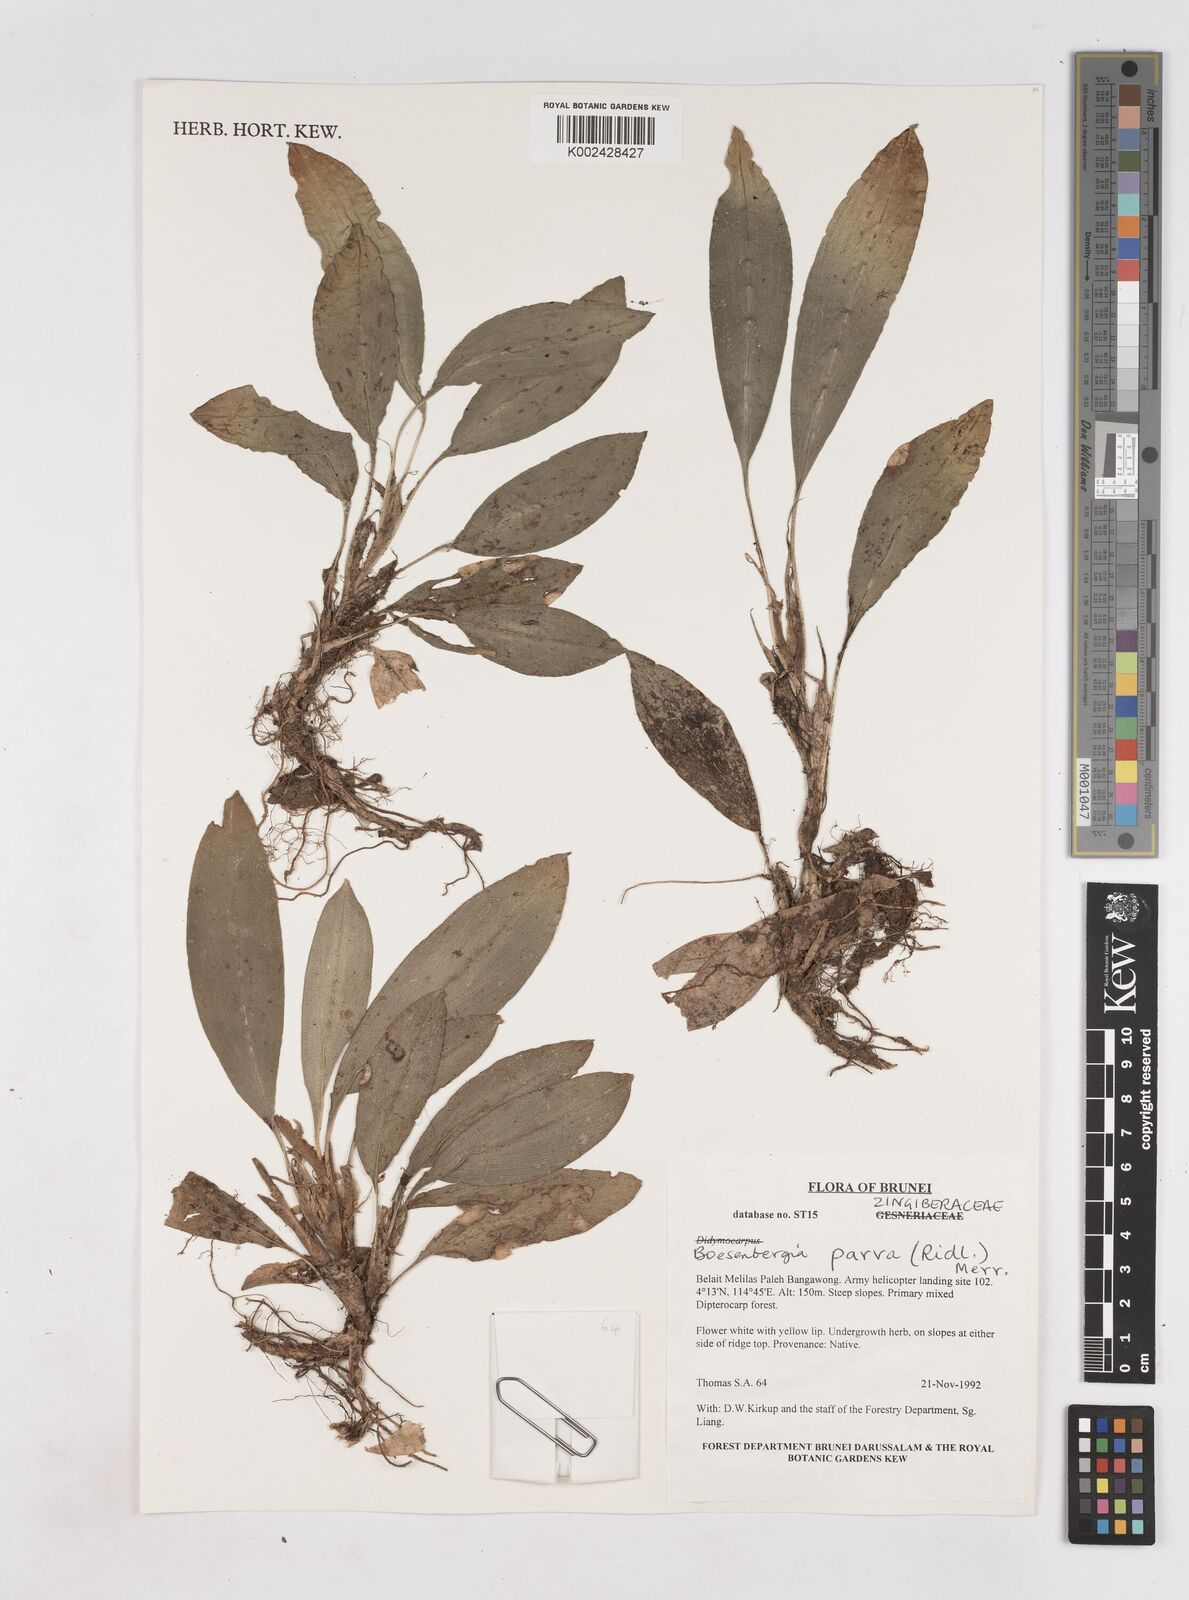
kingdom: Plantae
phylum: Tracheophyta
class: Liliopsida
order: Zingiberales
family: Zingiberaceae
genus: Boesenbergia
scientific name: Boesenbergia parva
